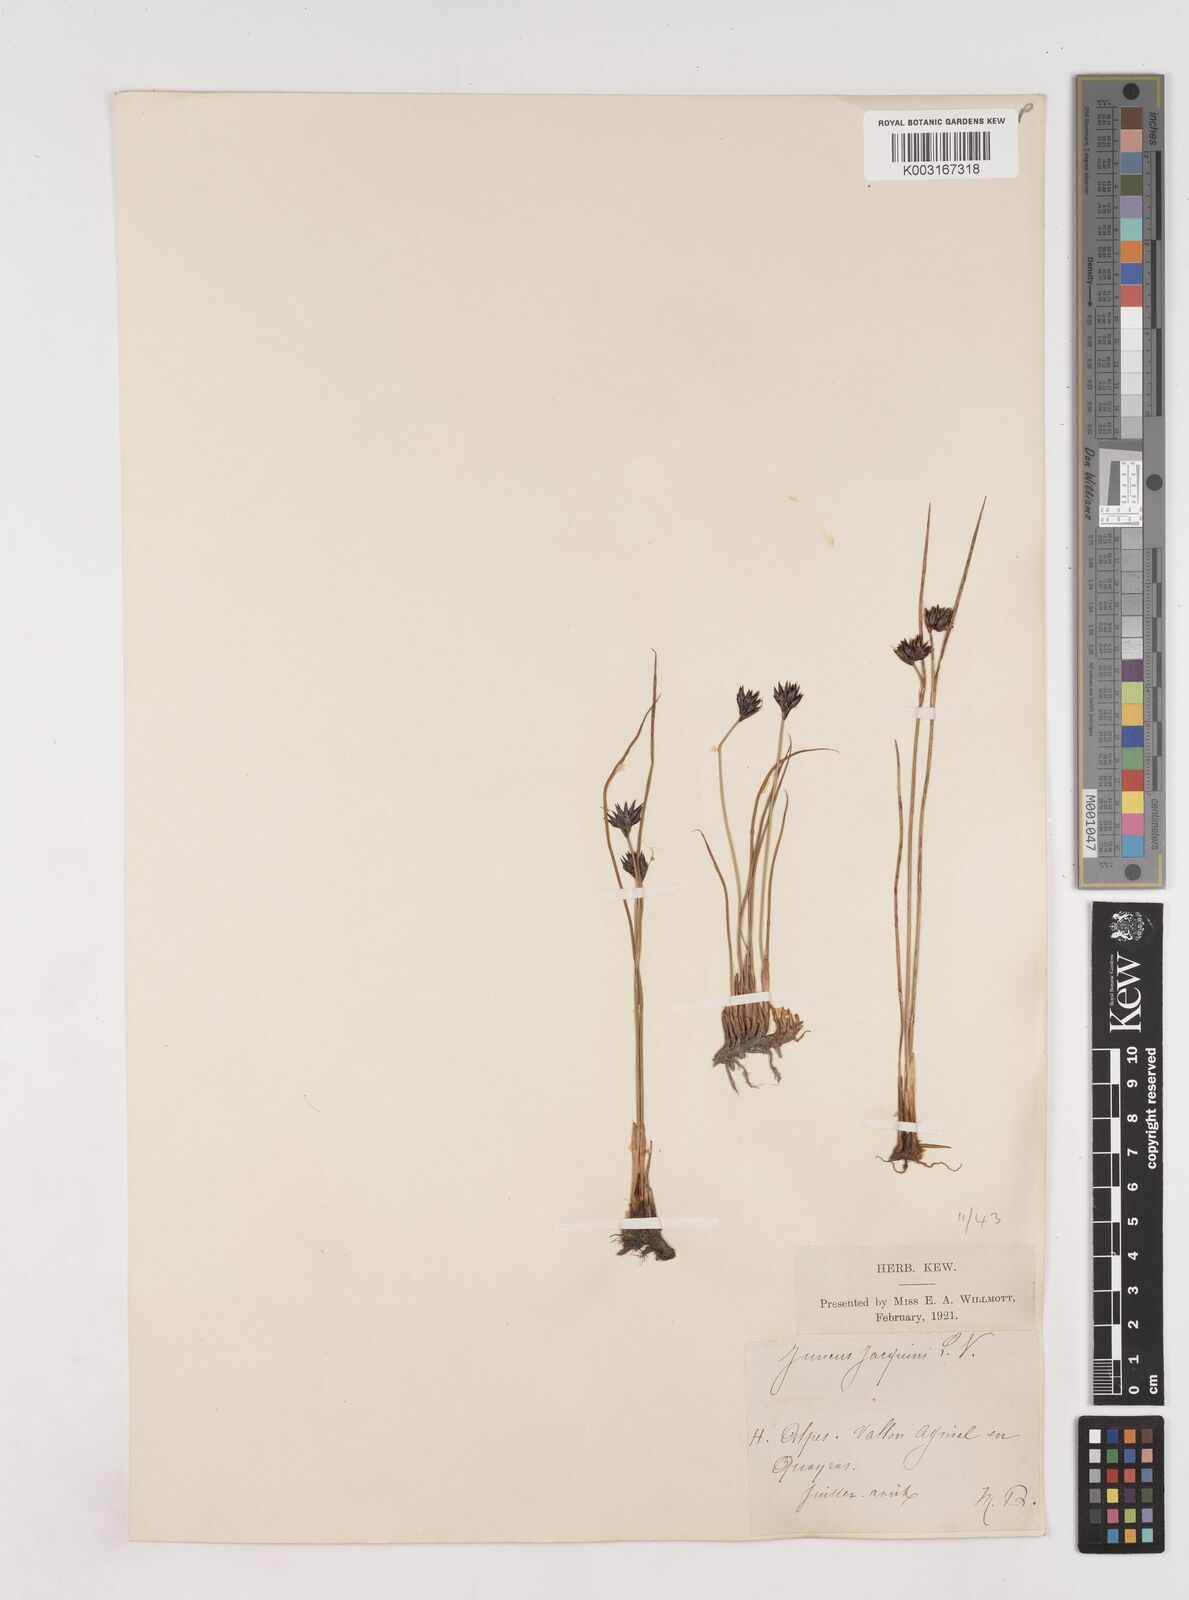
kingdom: Plantae
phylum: Tracheophyta
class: Liliopsida
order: Poales
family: Juncaceae
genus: Juncus
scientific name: Juncus jacquinii
